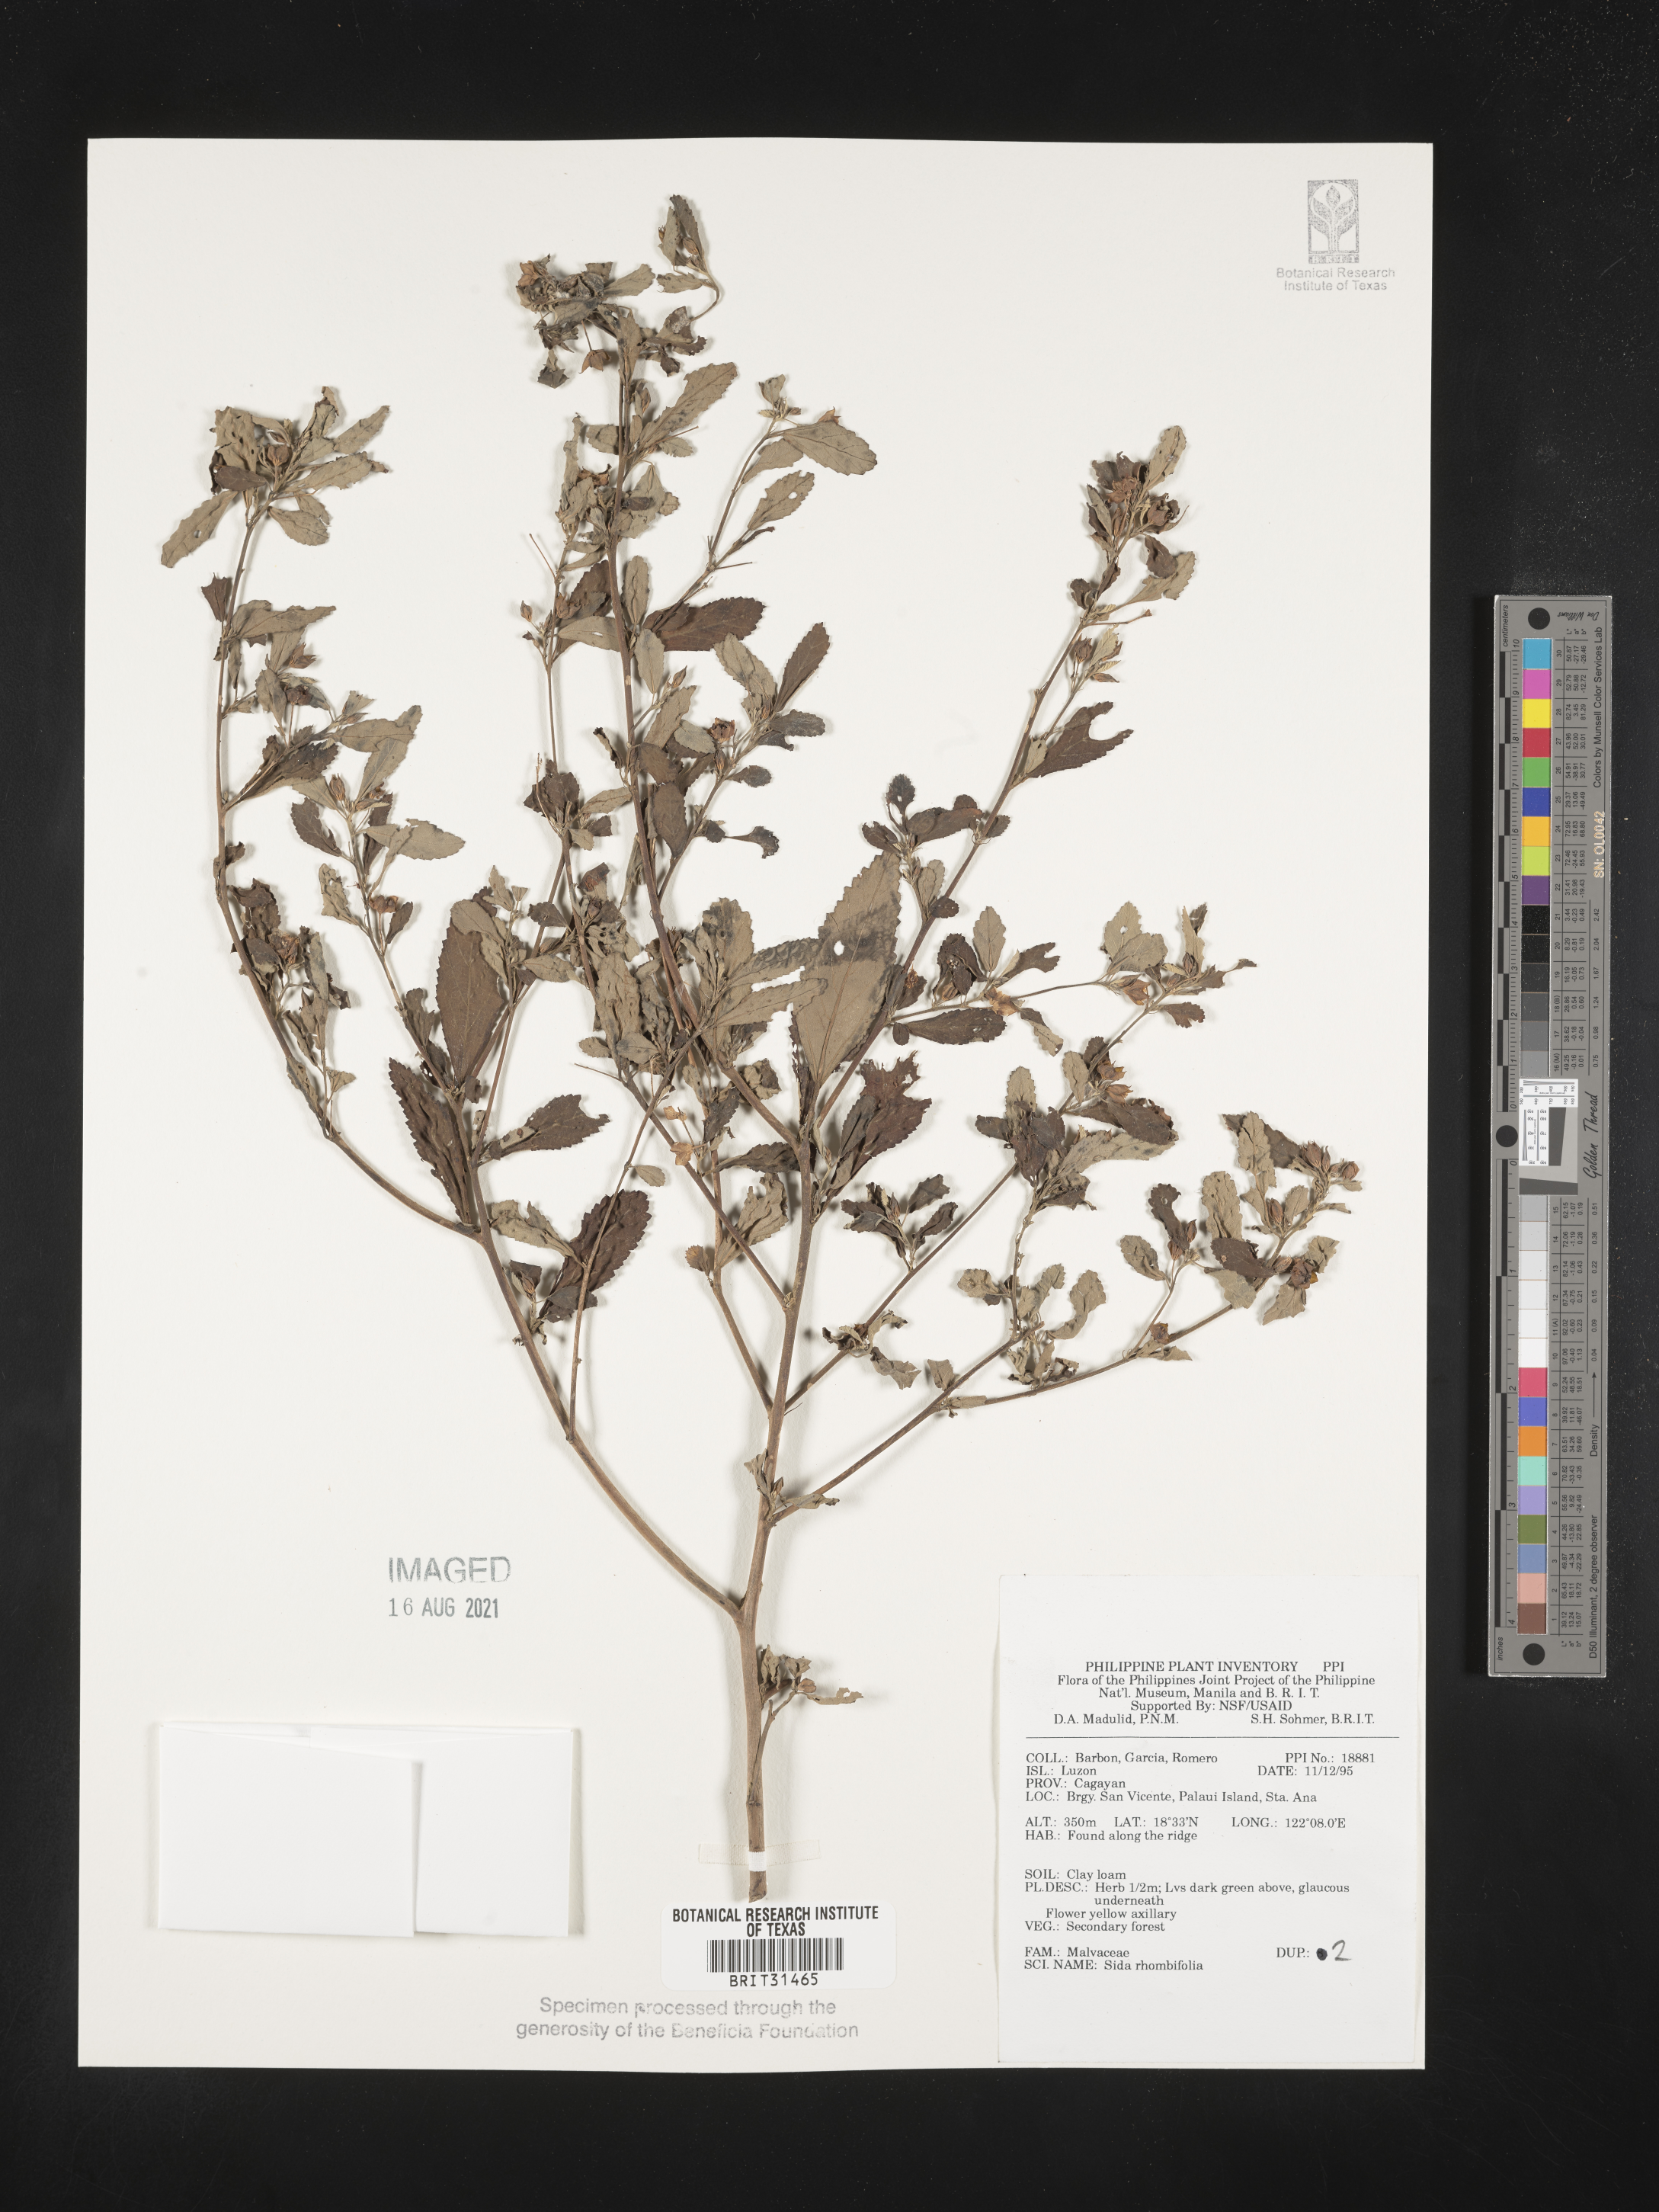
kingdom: Plantae
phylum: Tracheophyta
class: Magnoliopsida
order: Malvales
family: Malvaceae
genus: Sida
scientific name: Sida rhombifolia
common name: Queensland-hemp
